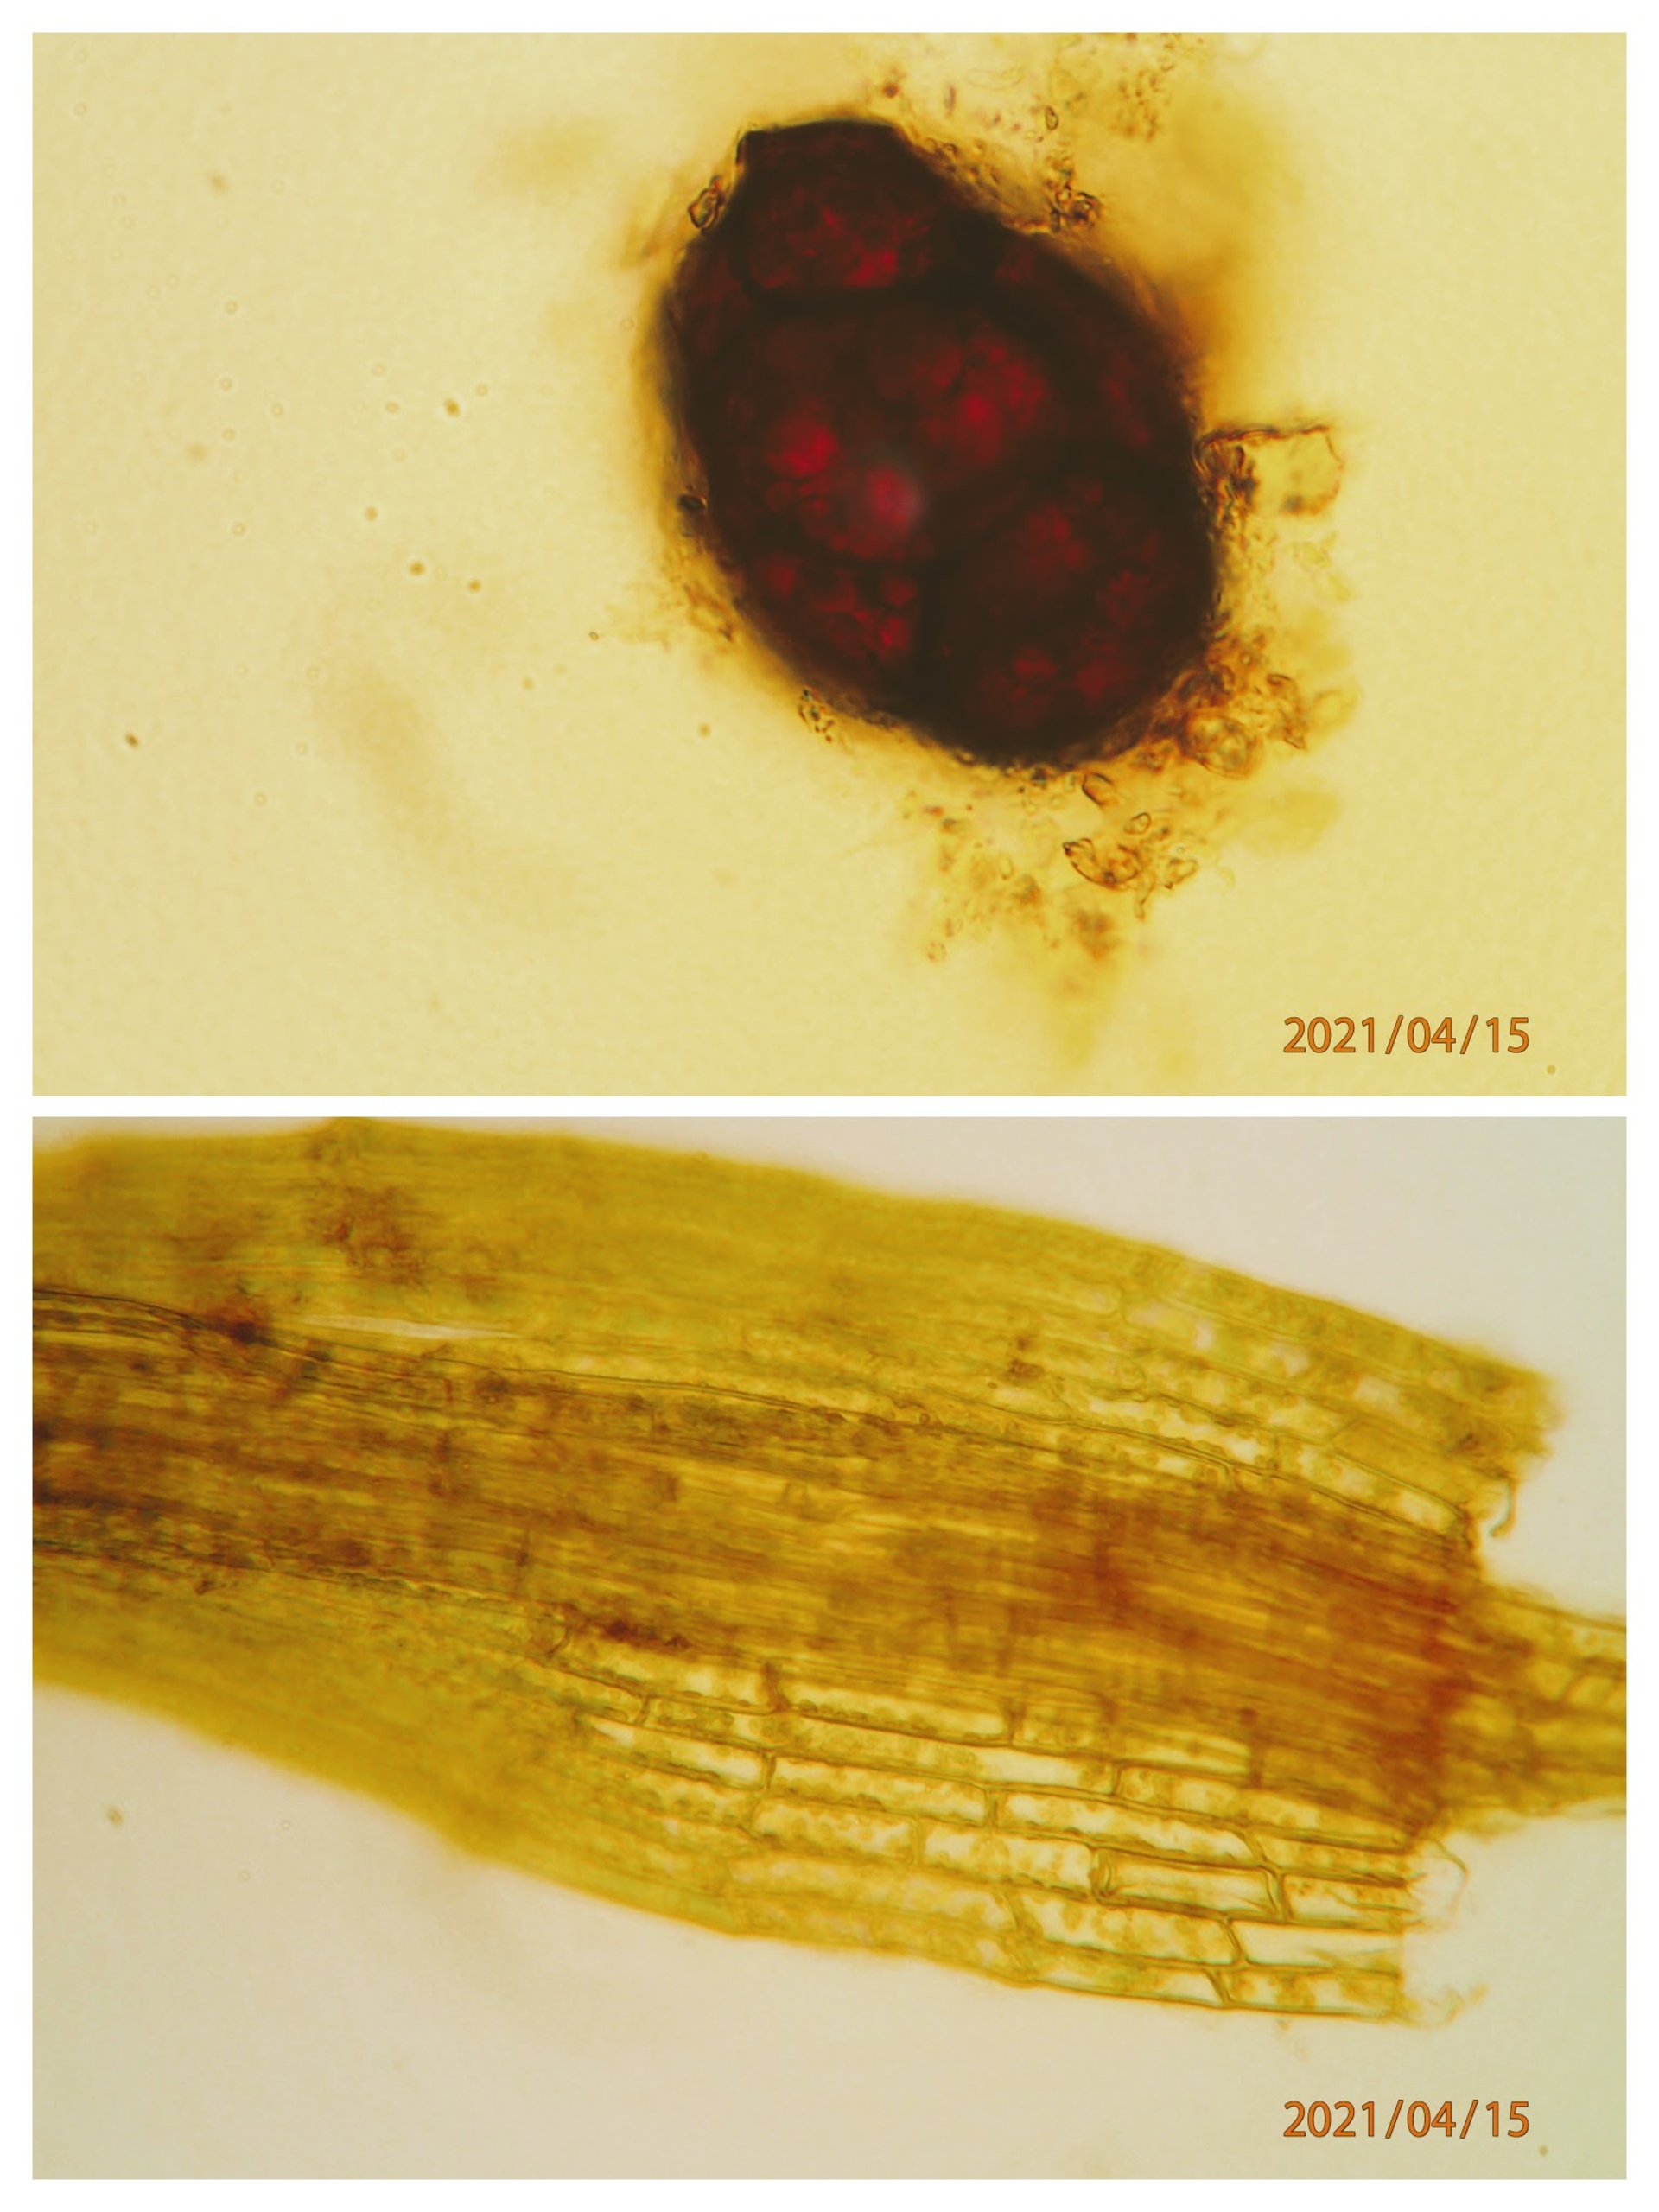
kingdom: Plantae
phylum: Bryophyta
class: Bryopsida
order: Splachnales
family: Meesiaceae
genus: Leptobryum
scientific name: Leptobryum pyriforme
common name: Almindelig pæremos
